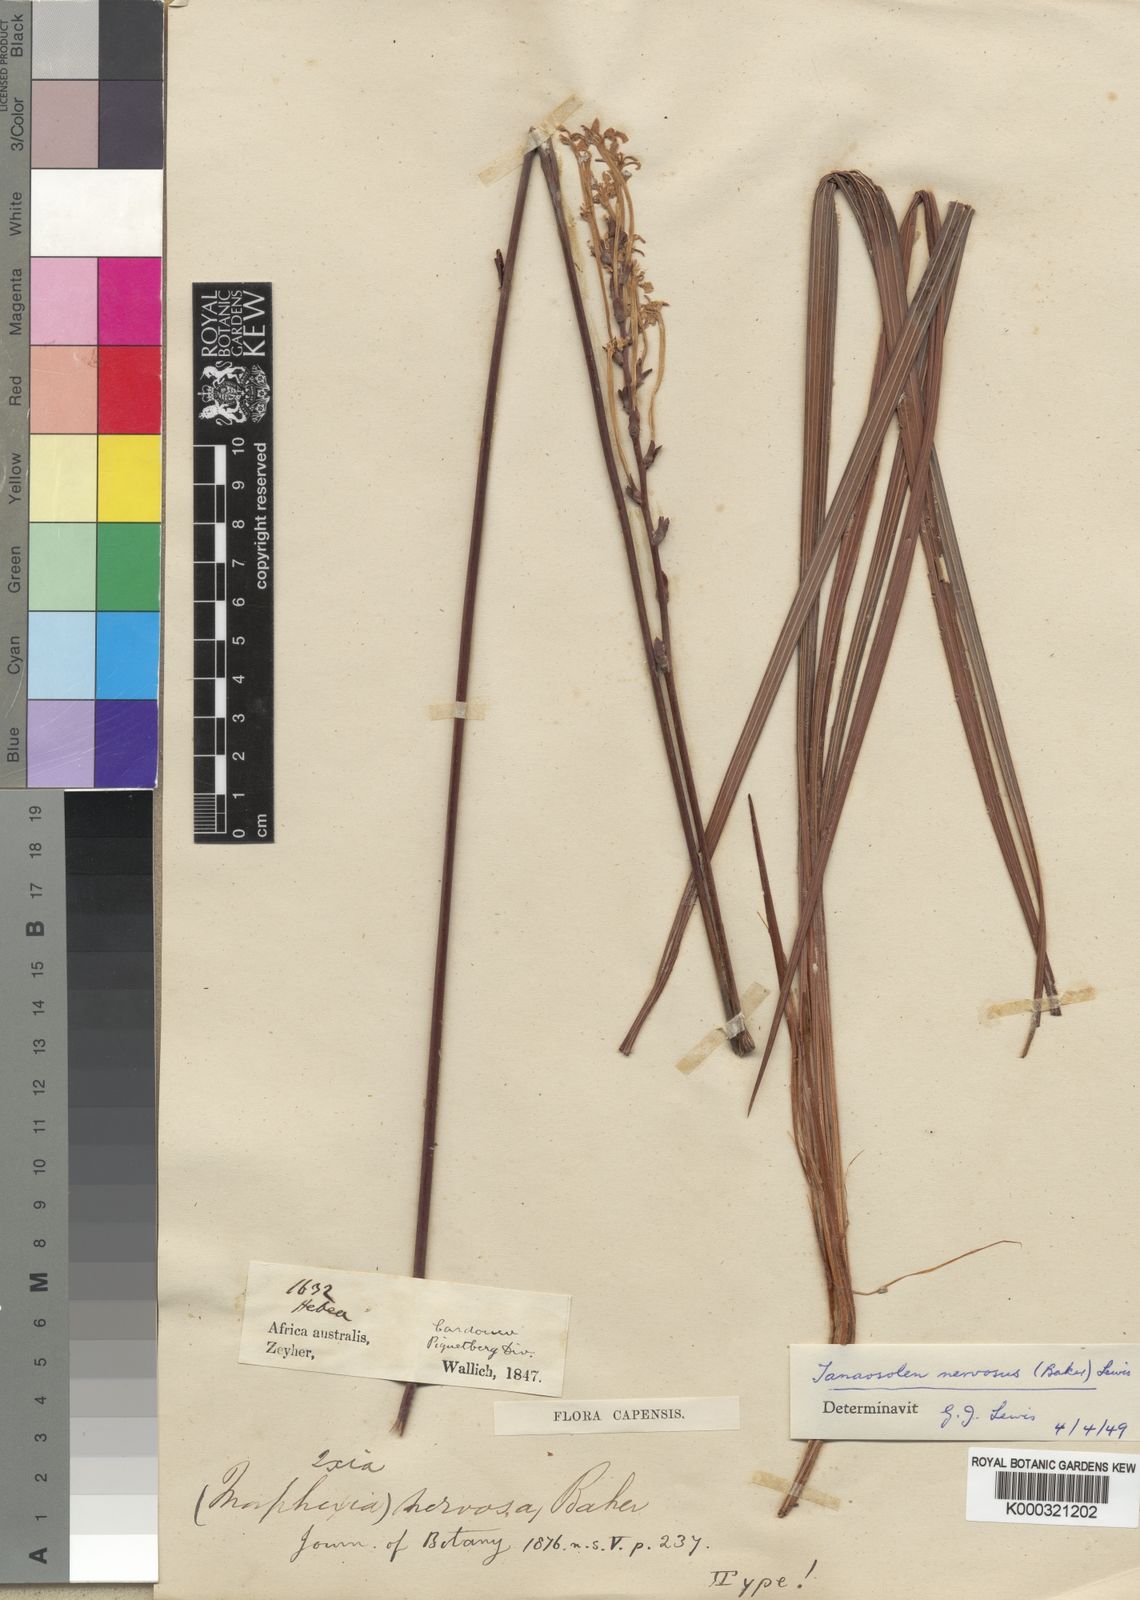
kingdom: Plantae
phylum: Tracheophyta
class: Liliopsida
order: Asparagales
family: Iridaceae
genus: Tritoniopsis
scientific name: Tritoniopsis nervosa
